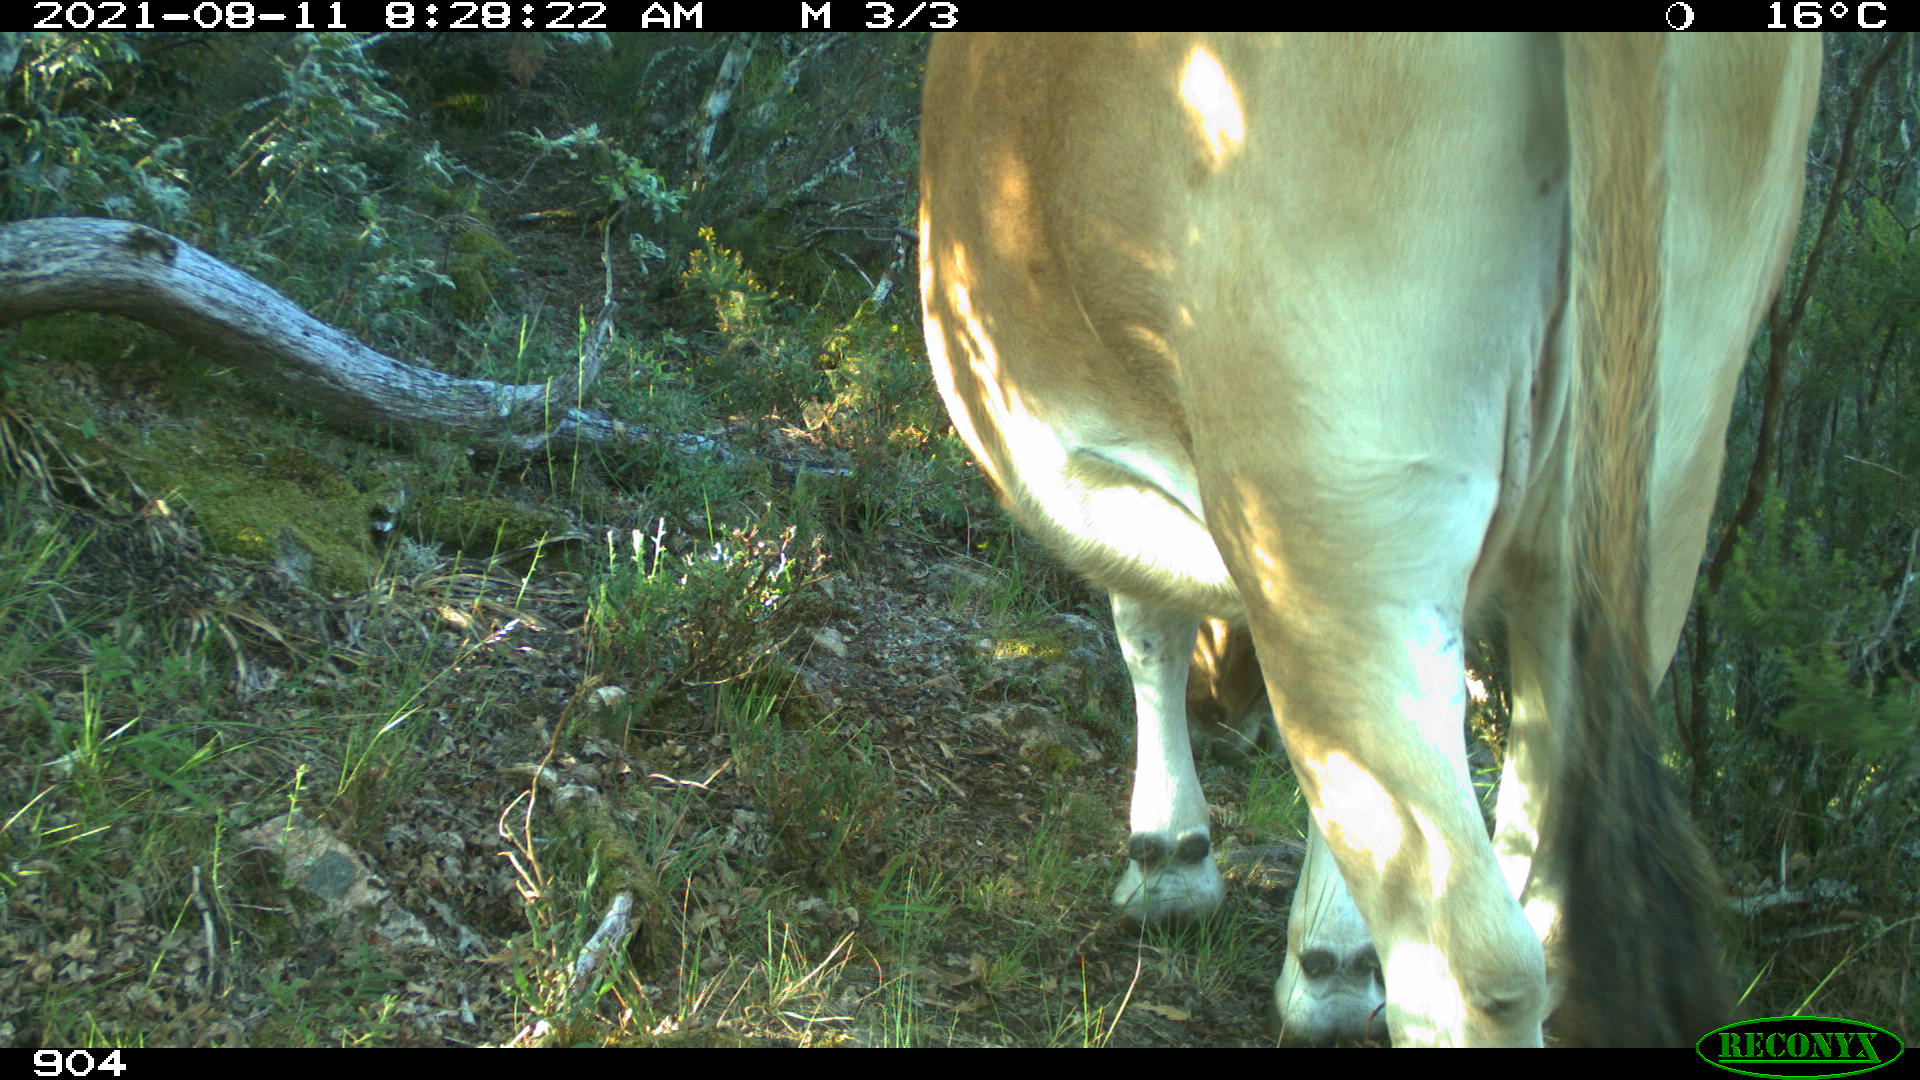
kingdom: Animalia
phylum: Chordata
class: Mammalia
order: Artiodactyla
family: Bovidae
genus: Bos
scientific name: Bos taurus
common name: Domesticated cattle
